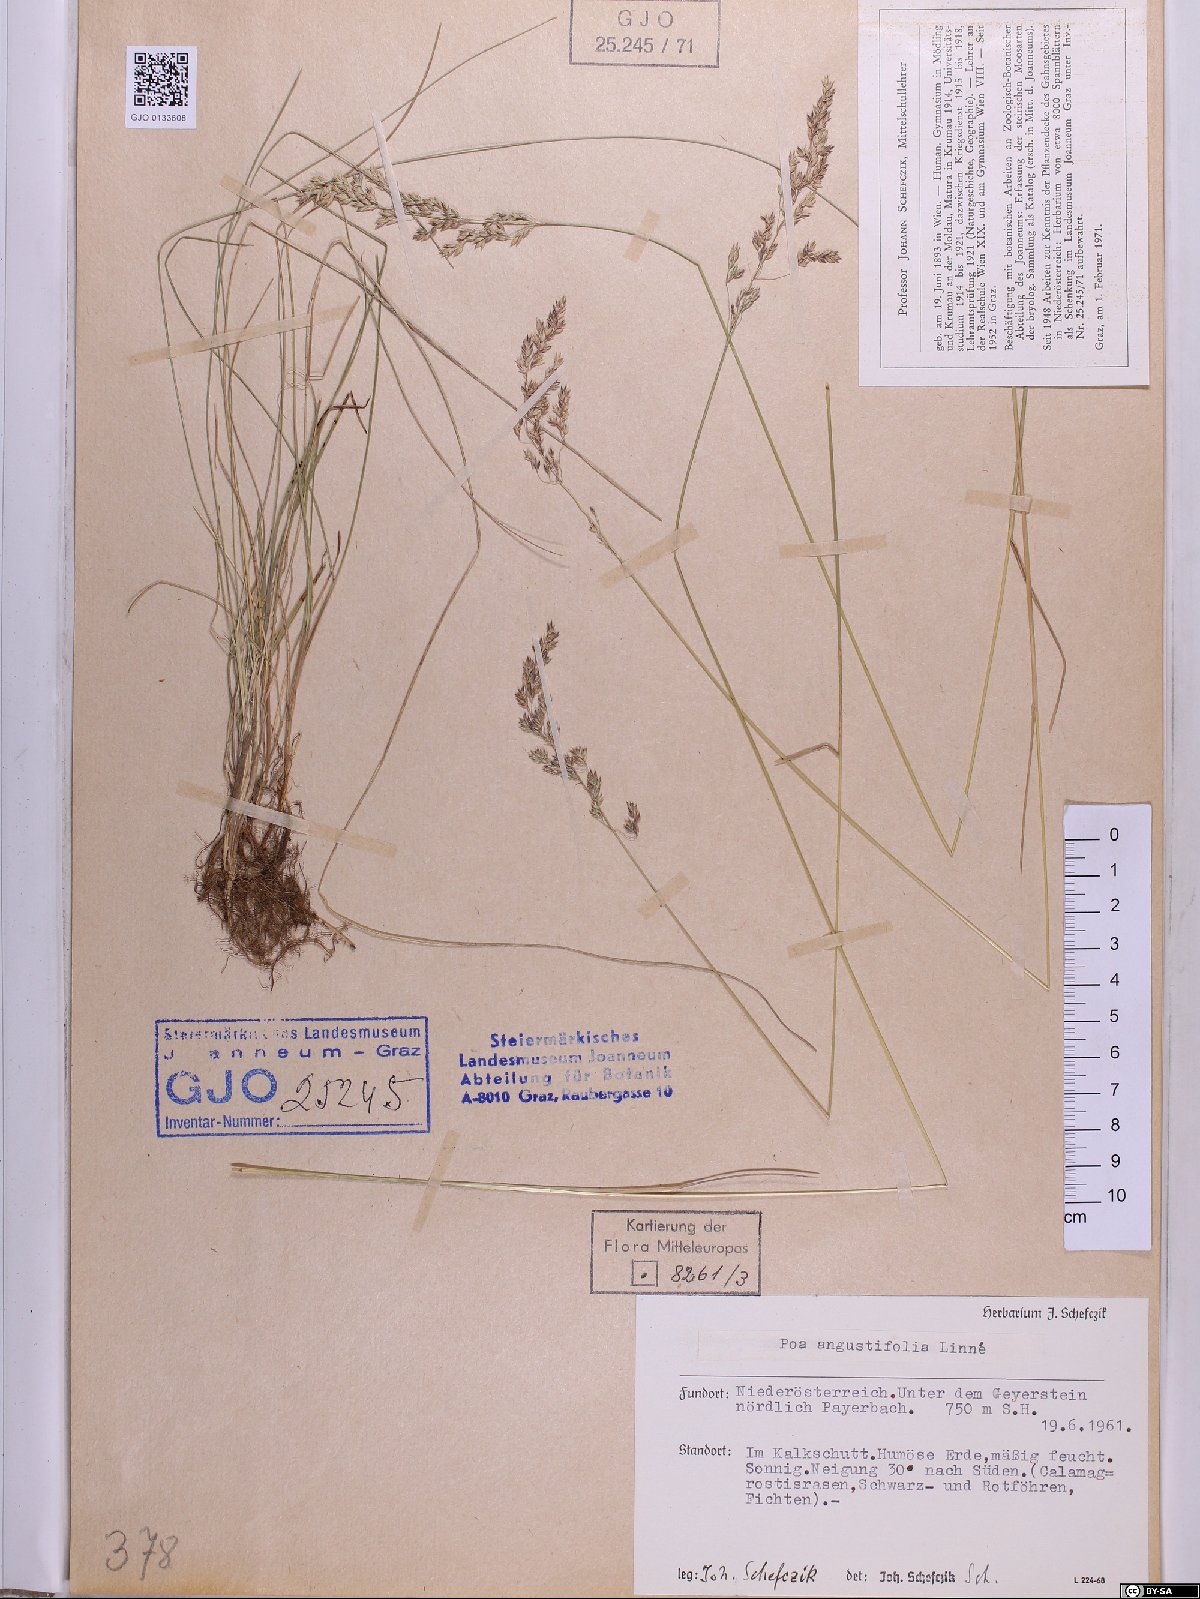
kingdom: Plantae
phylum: Tracheophyta
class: Liliopsida
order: Poales
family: Poaceae
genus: Poa
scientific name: Poa angustifolia
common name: Narrow-leaved meadow-grass
